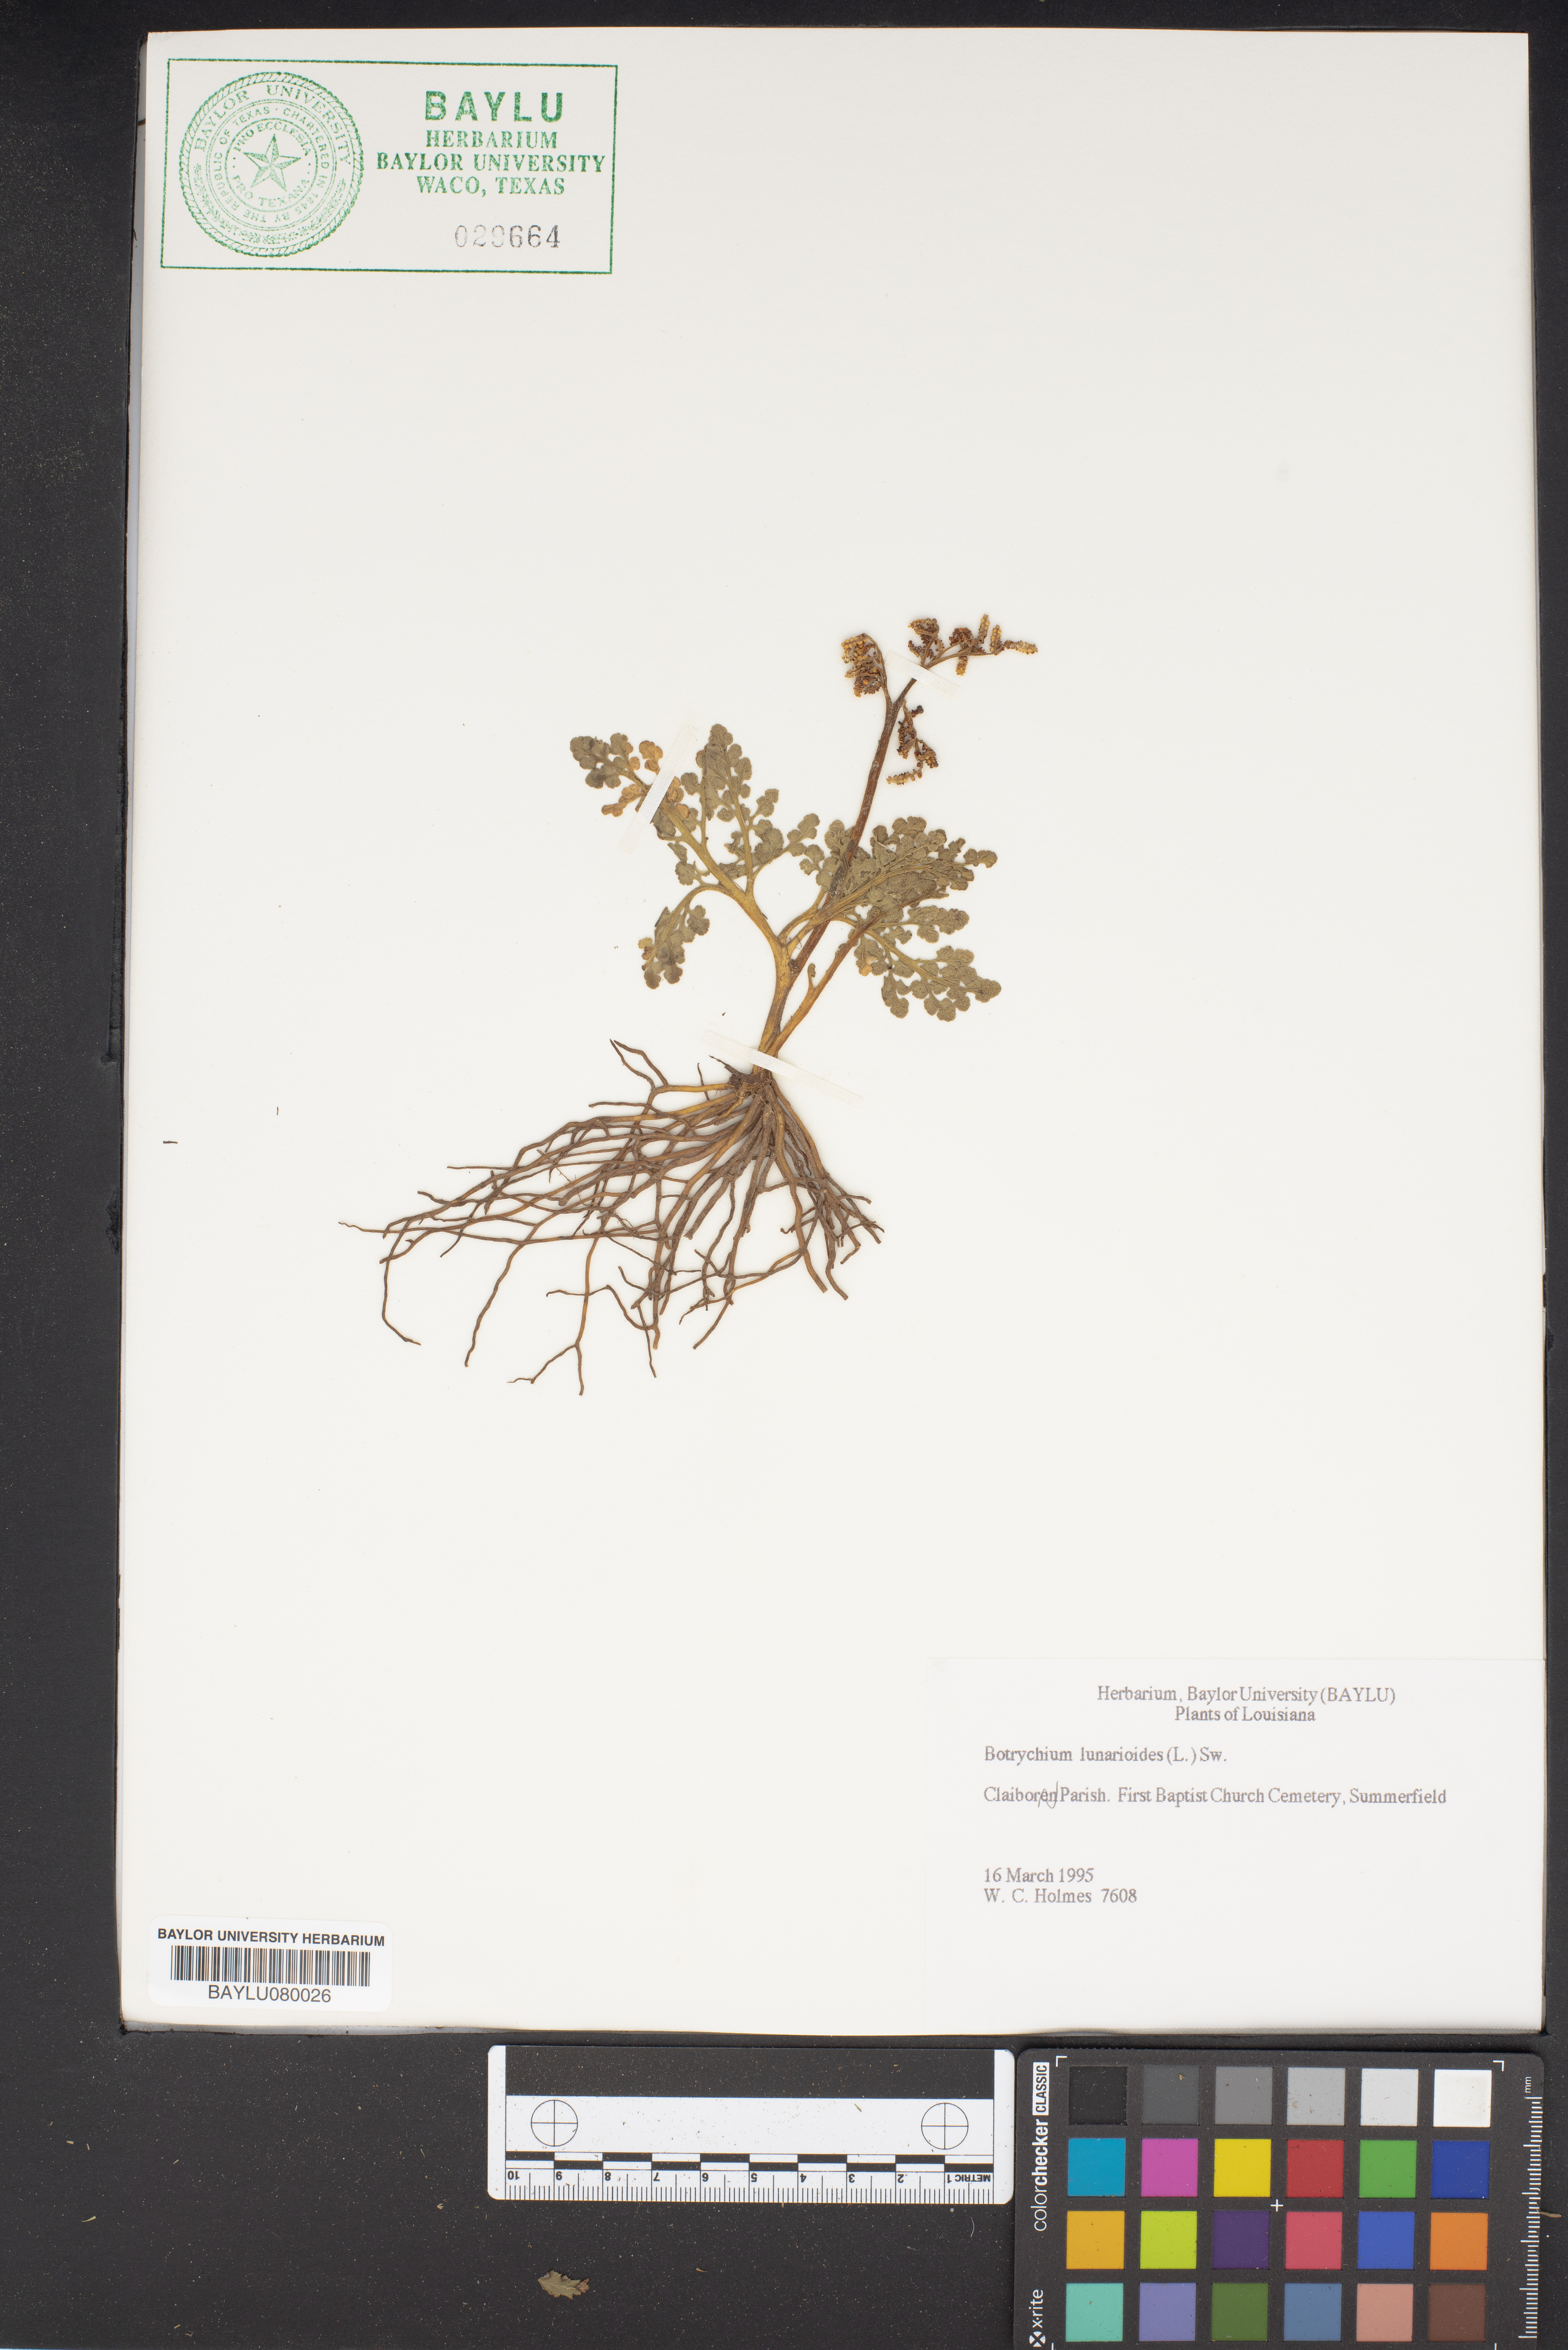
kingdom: Plantae
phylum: Tracheophyta
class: Polypodiopsida
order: Ophioglossales
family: Ophioglossaceae
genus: Sceptridium
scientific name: Sceptridium lunarioides
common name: Prostrate grapefern
